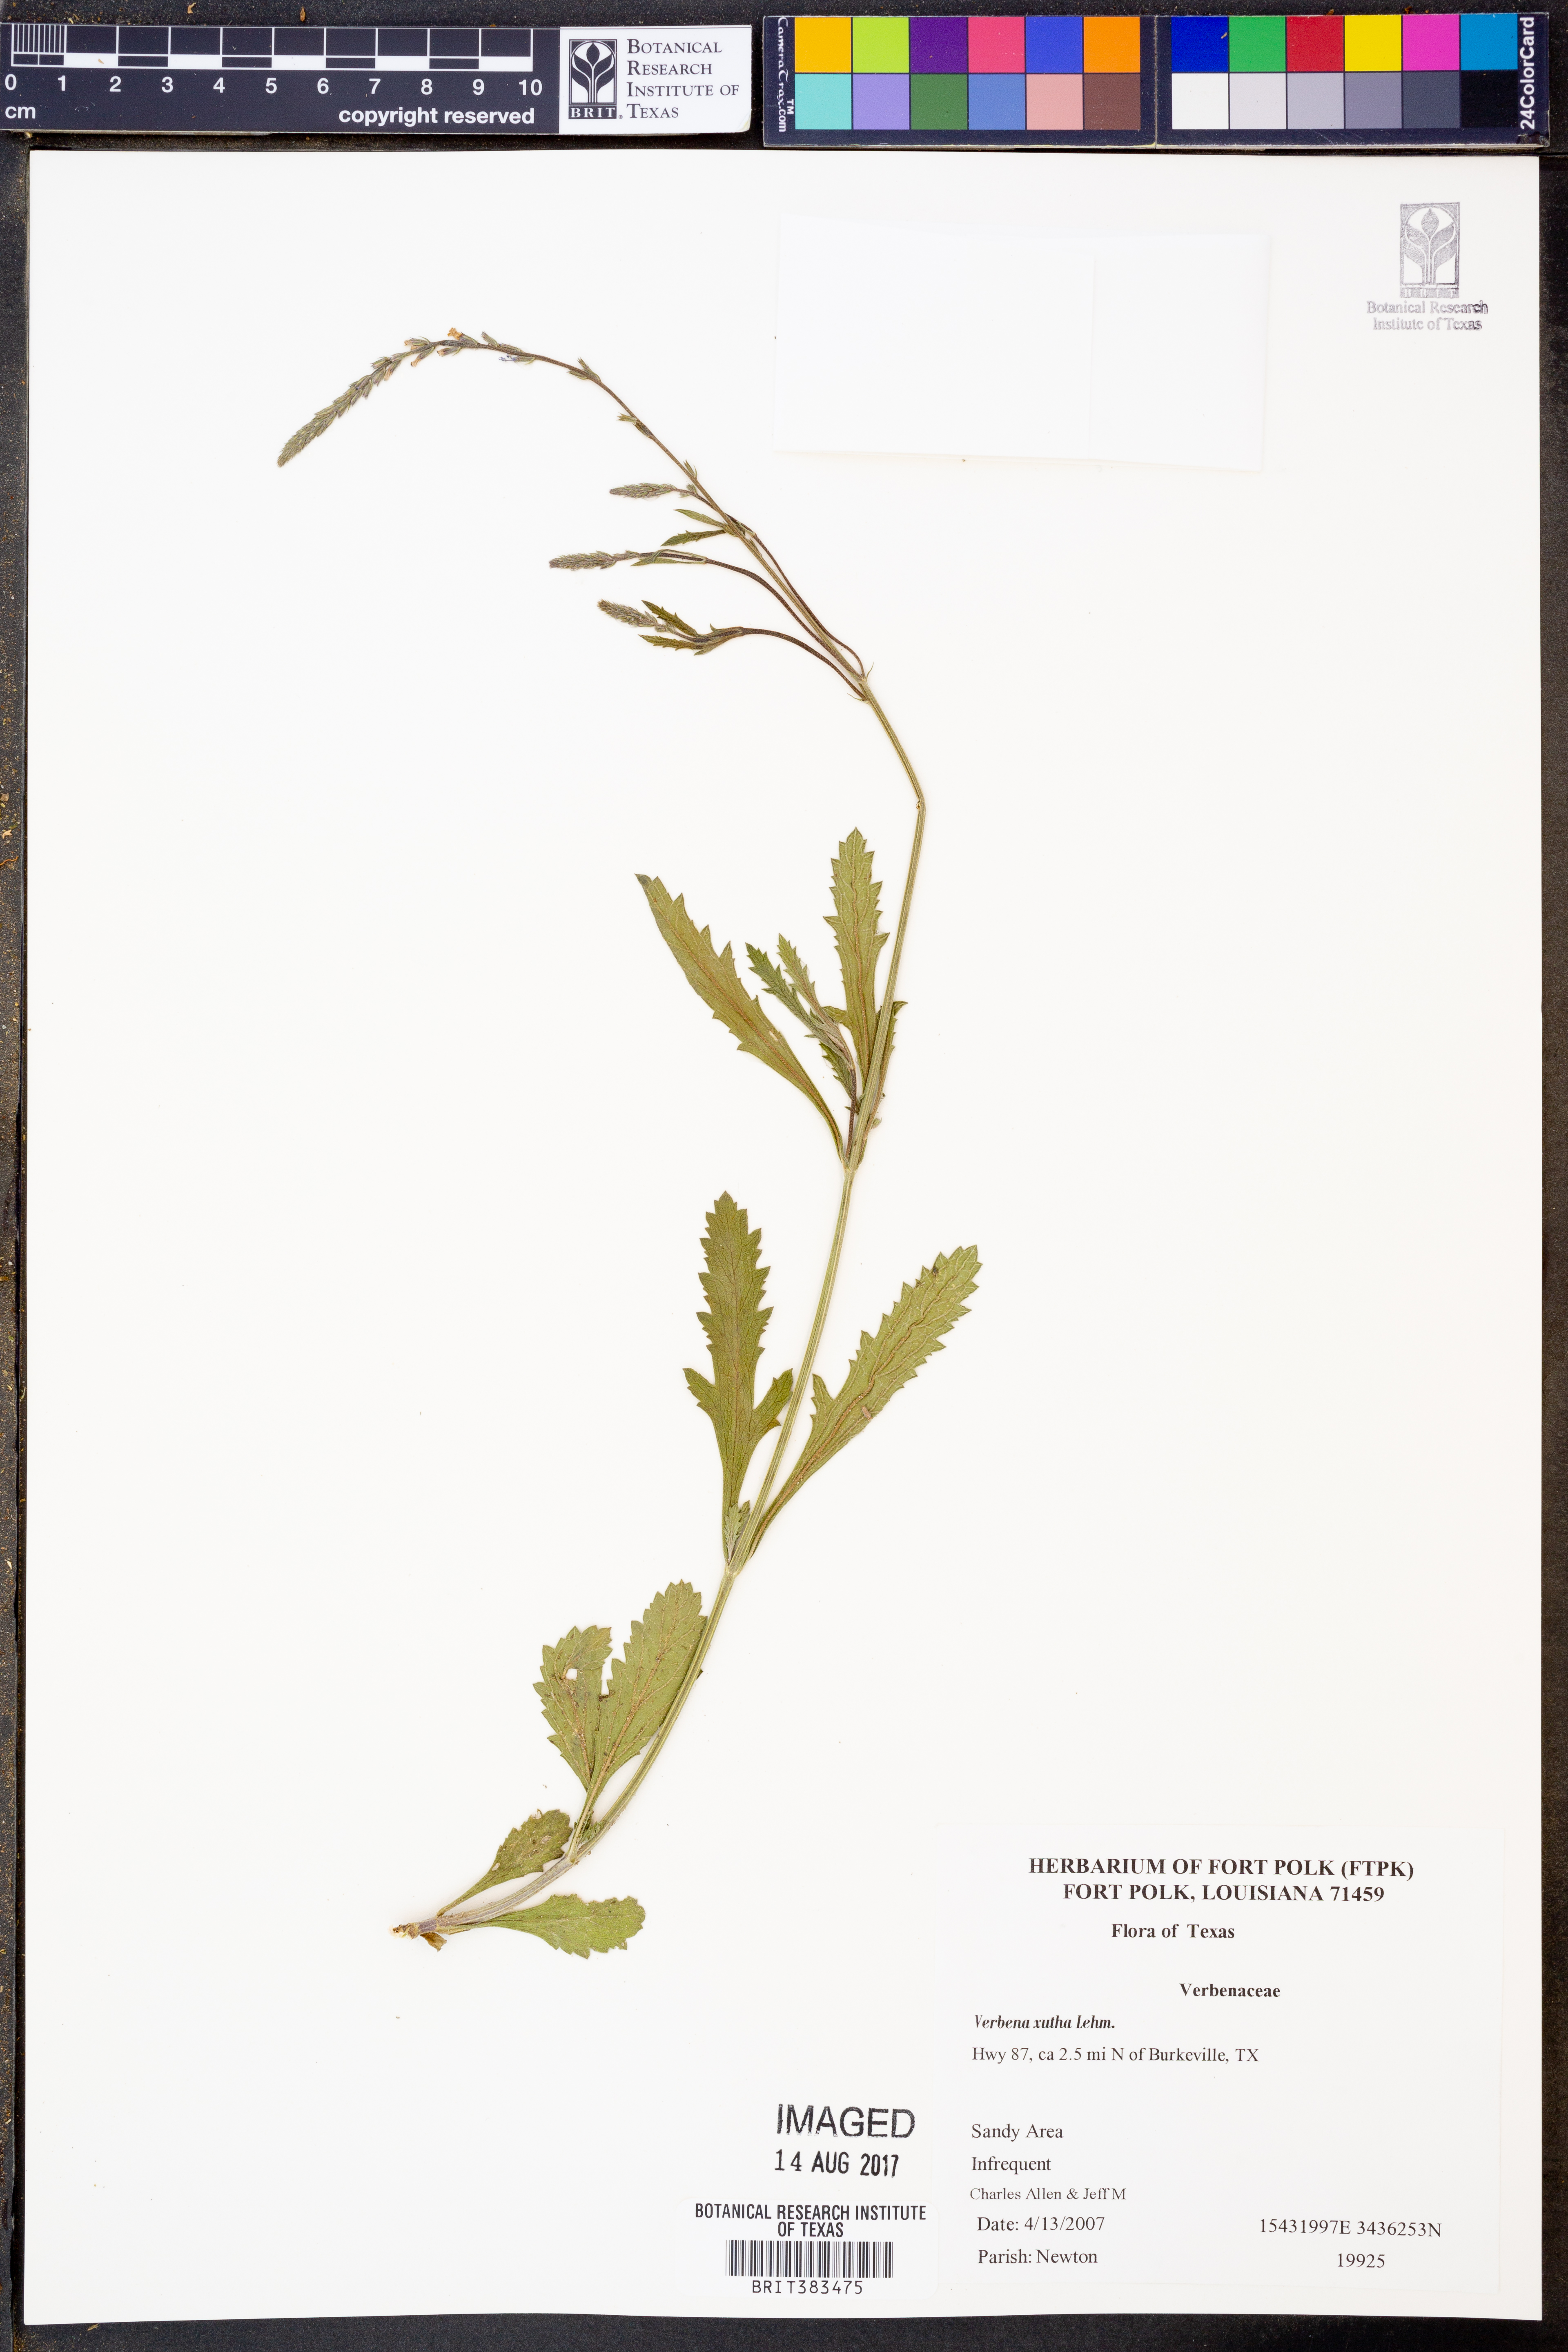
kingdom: Plantae
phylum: Tracheophyta
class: Magnoliopsida
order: Lamiales
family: Verbenaceae
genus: Verbena
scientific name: Verbena xutha
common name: Gulf vervain
